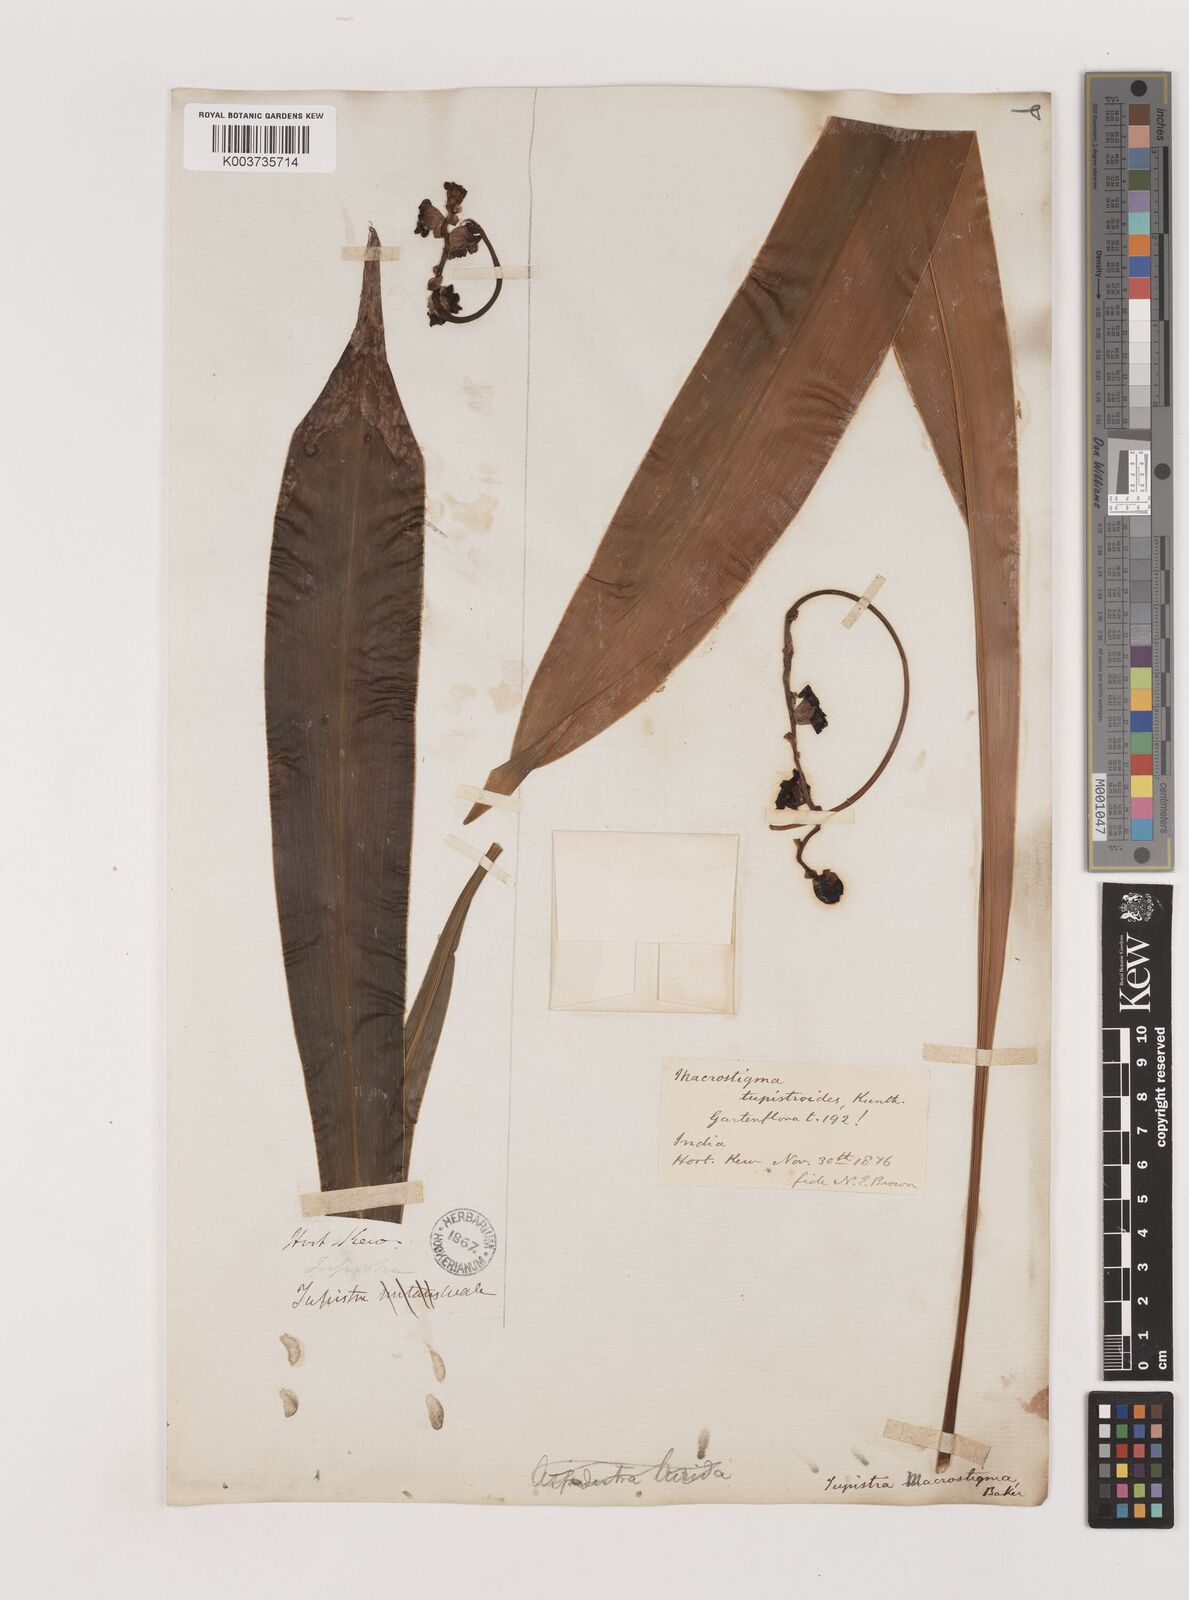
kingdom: Plantae
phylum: Tracheophyta
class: Liliopsida
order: Asparagales
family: Asparagaceae
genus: Tupistra
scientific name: Tupistra tupistroides
